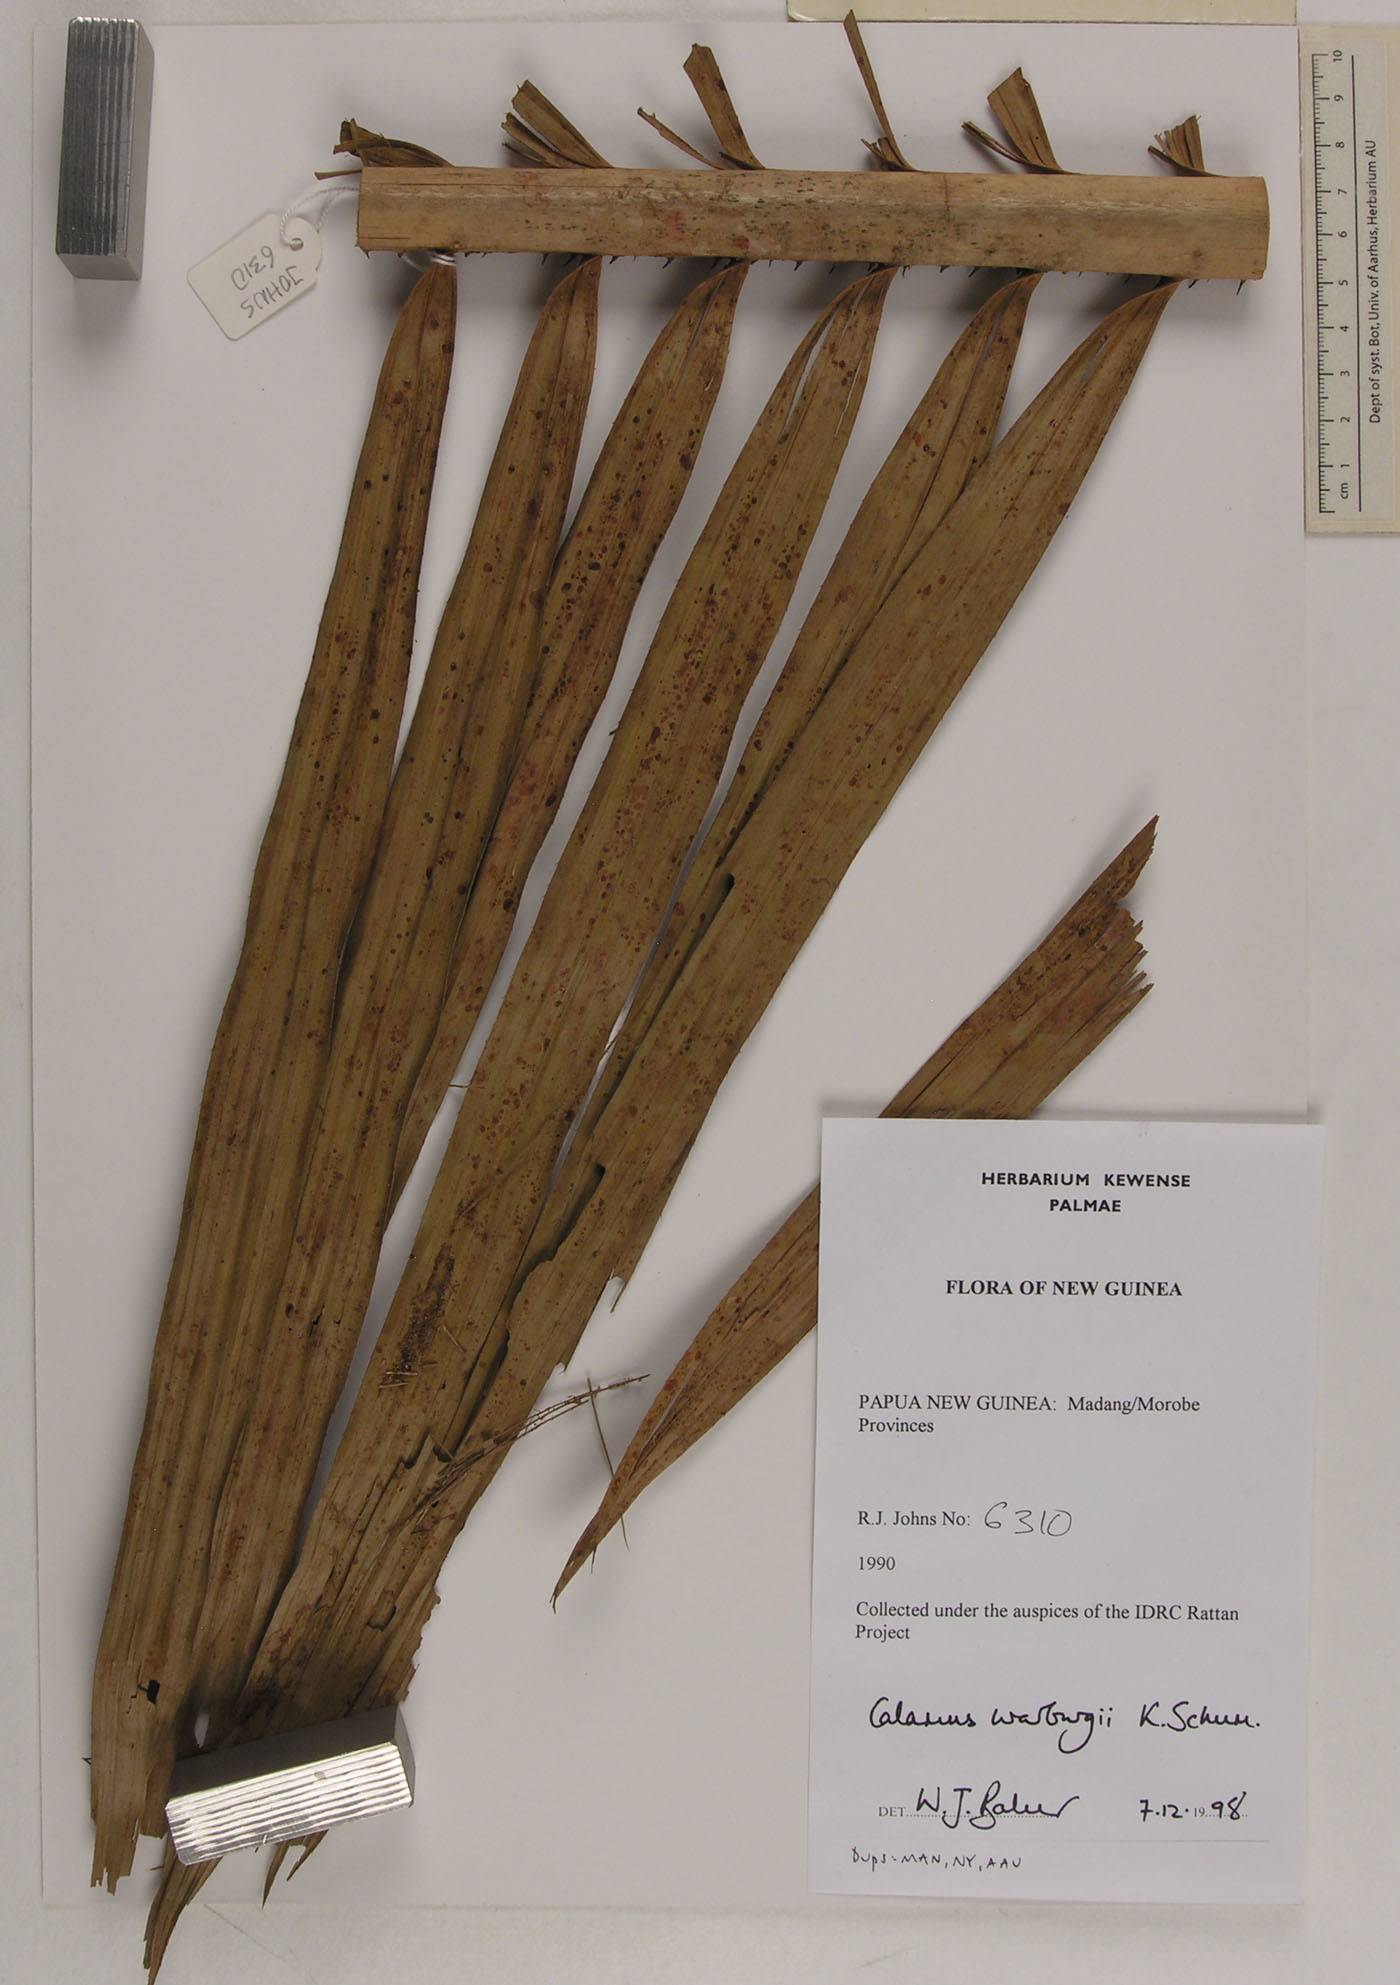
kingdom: Plantae
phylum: Tracheophyta
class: Liliopsida
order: Arecales
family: Arecaceae
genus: Calamus
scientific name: Calamus warburgii
